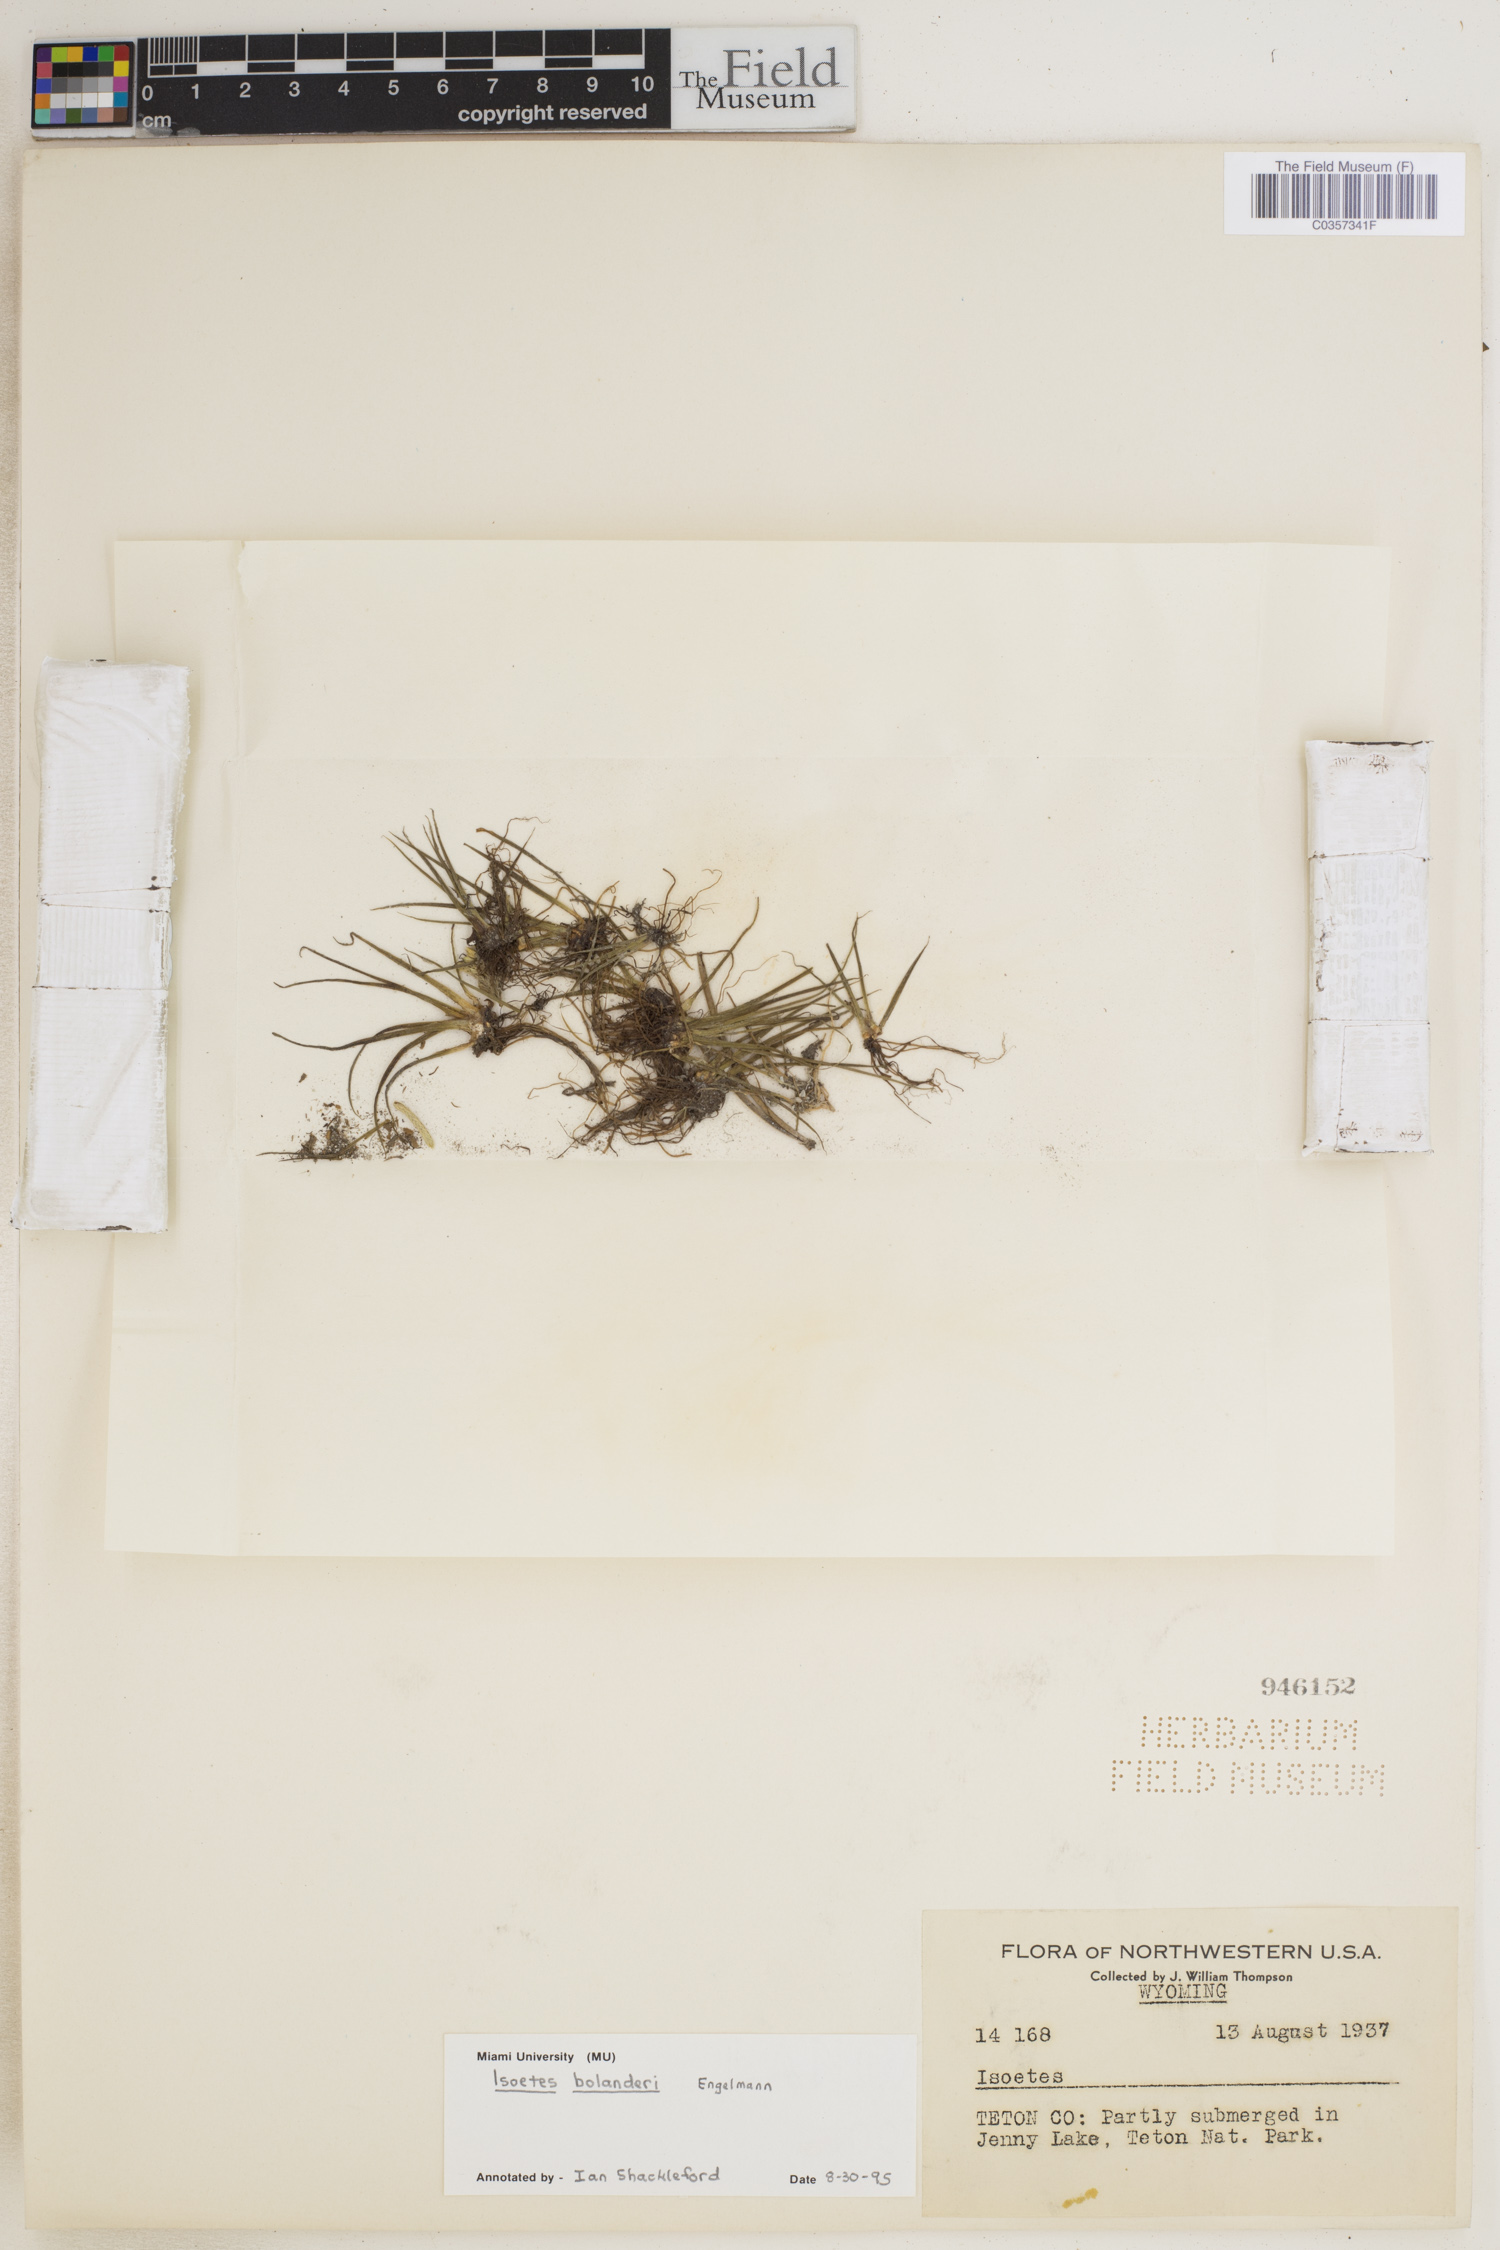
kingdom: Plantae
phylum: Tracheophyta
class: Lycopodiopsida
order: Isoetales
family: Isoetaceae
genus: Isoetes
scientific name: Isoetes bolanderi
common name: Bolander's quillwort
